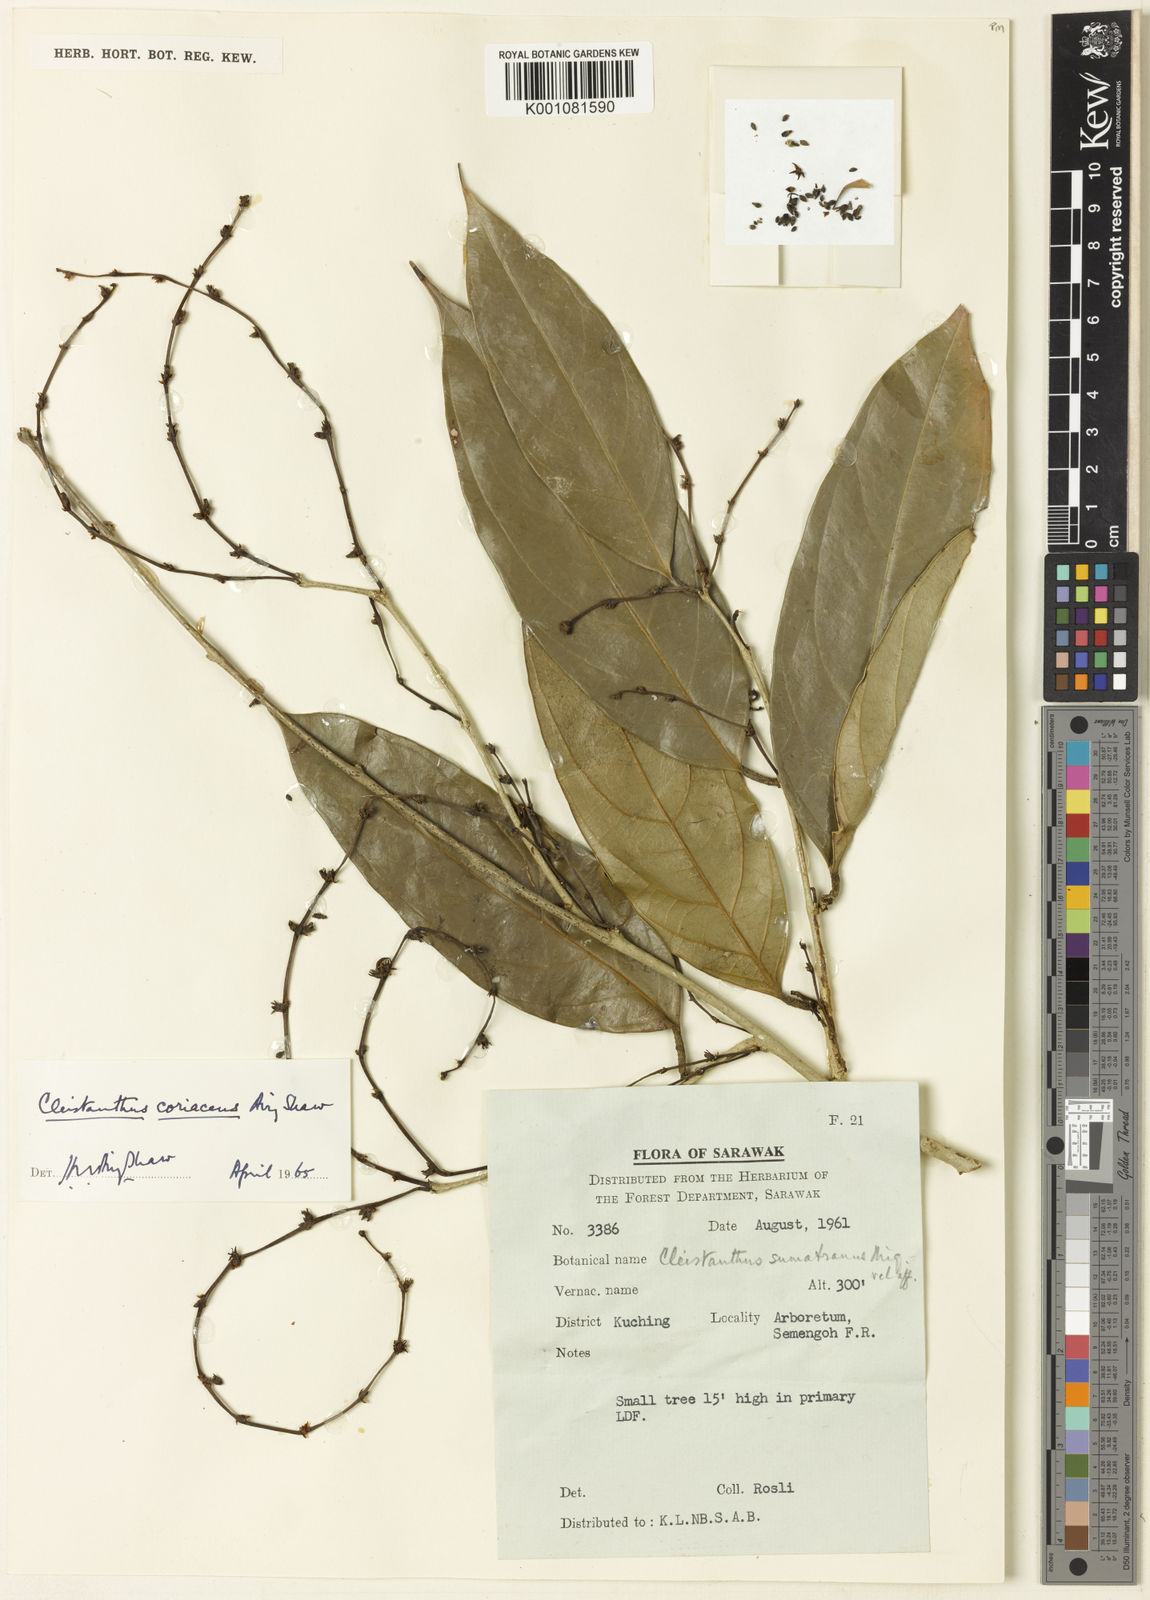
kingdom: Plantae
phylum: Tracheophyta
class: Magnoliopsida
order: Malpighiales
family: Phyllanthaceae
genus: Cleistanthus
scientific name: Cleistanthus coriaceus
